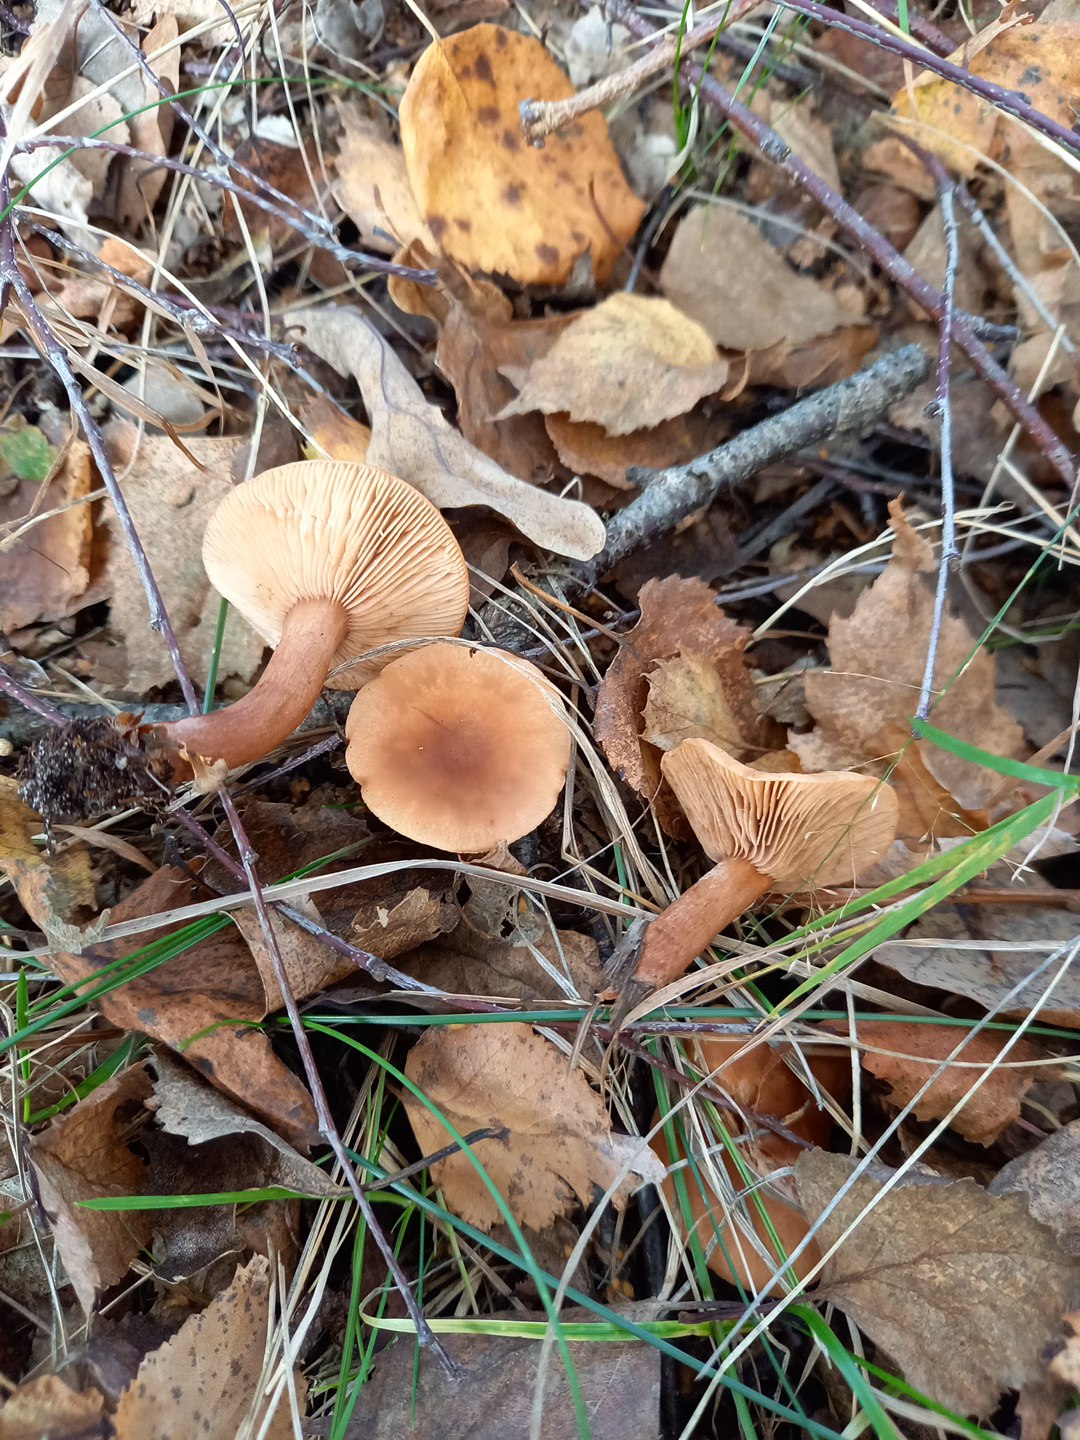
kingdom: Fungi
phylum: Basidiomycota
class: Agaricomycetes
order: Russulales
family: Russulaceae
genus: Lactarius
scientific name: Lactarius tabidus
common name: rynket mælkehat
